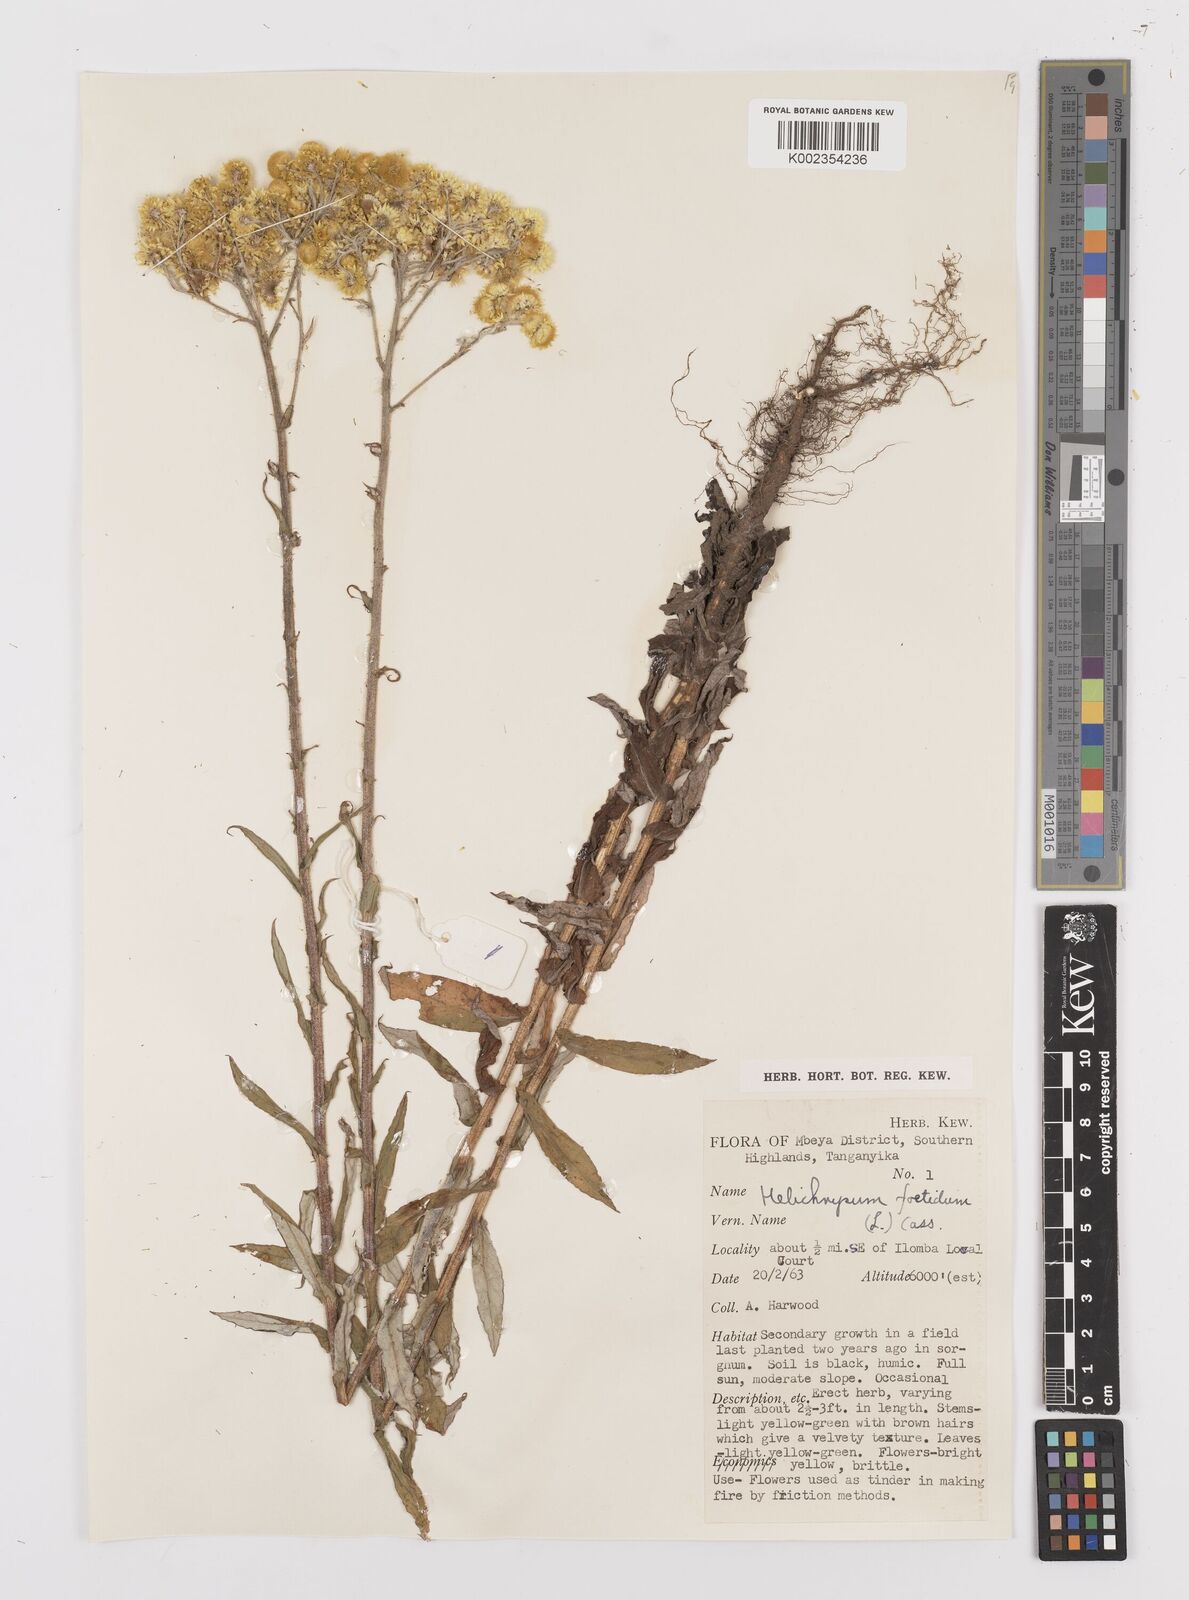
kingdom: Plantae
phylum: Tracheophyta
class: Magnoliopsida
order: Asterales
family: Asteraceae
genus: Helichrysum
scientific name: Helichrysum
